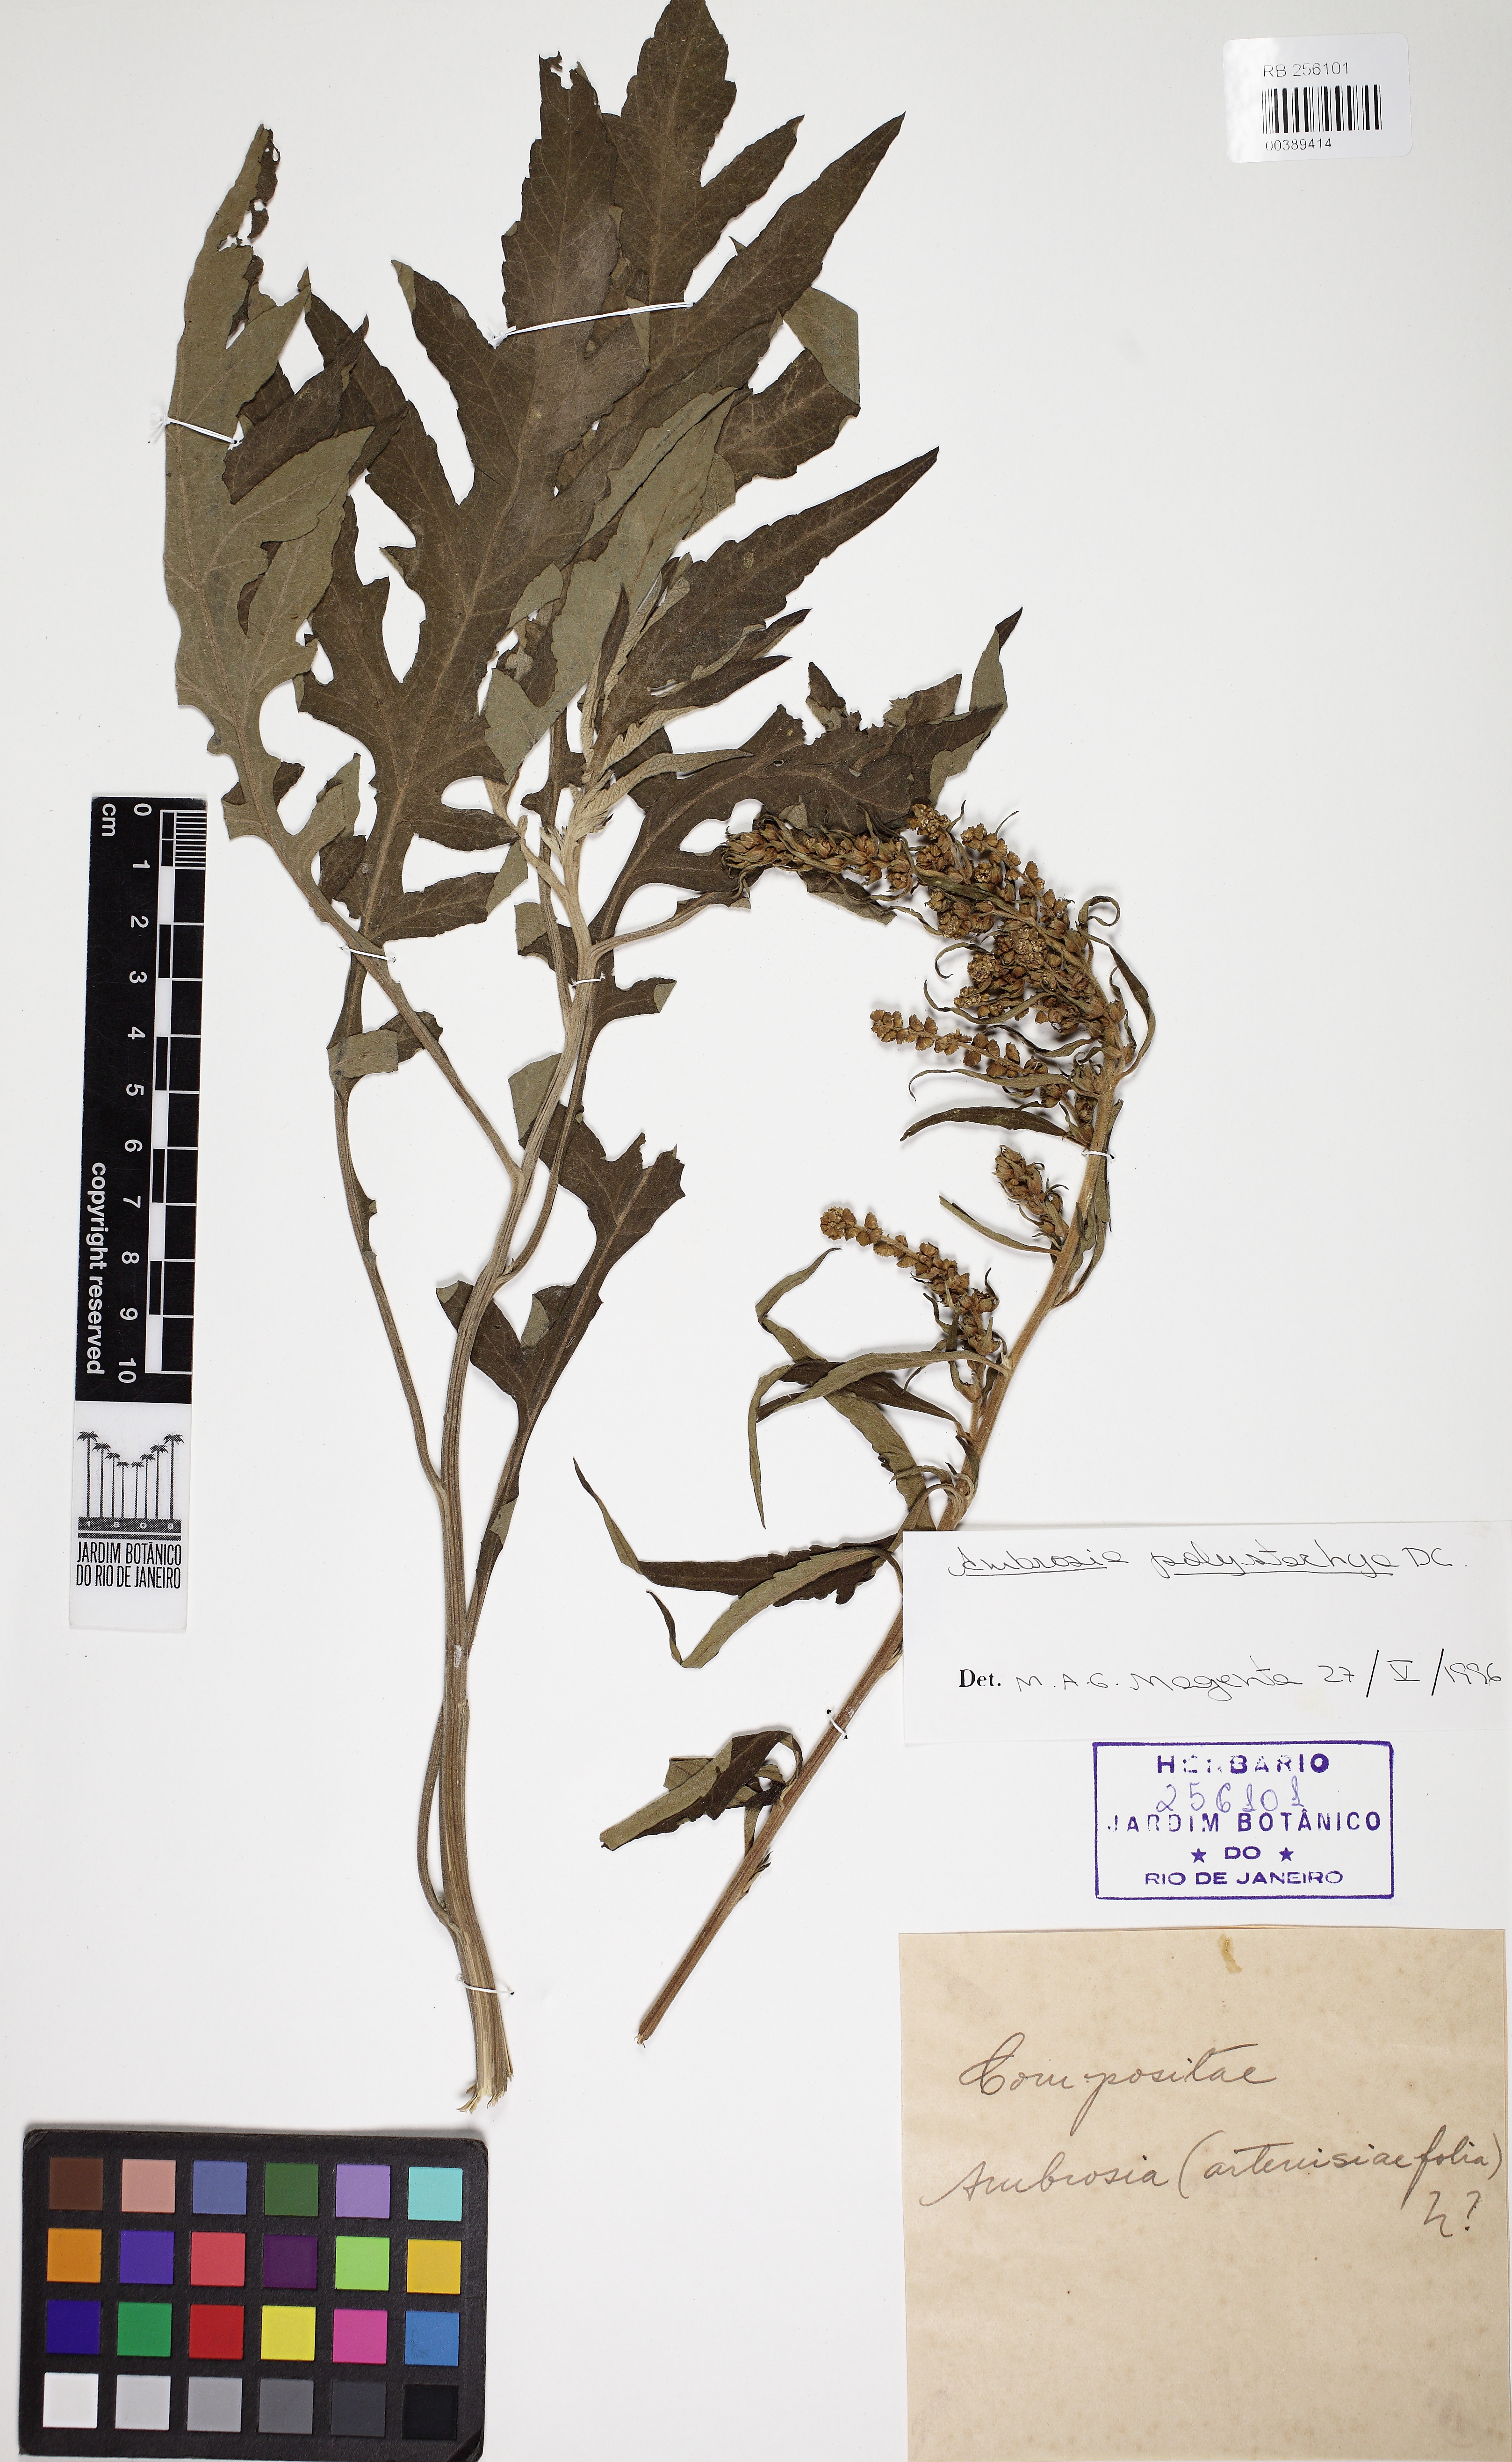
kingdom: Plantae
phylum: Tracheophyta
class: Magnoliopsida
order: Asterales
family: Asteraceae
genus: Ambrosia
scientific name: Ambrosia polystachya
